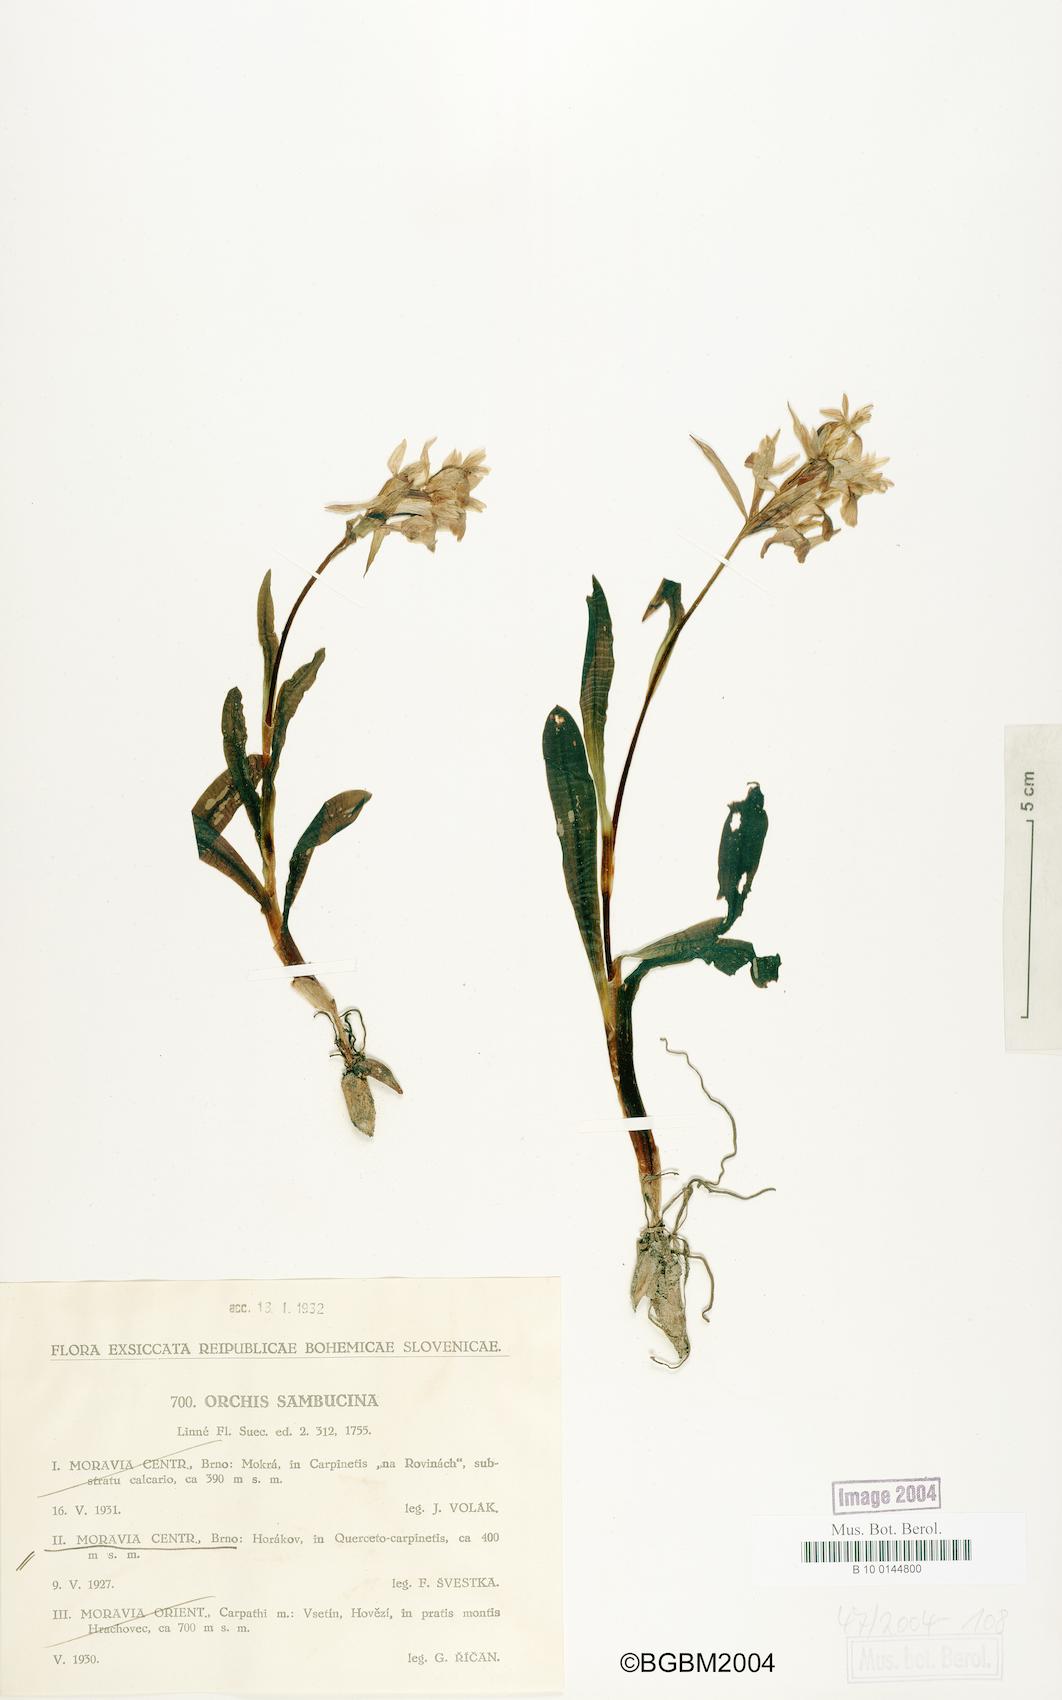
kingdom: Plantae
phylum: Tracheophyta
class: Liliopsida
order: Asparagales
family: Orchidaceae
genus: Dactylorhiza
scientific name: Dactylorhiza sambucina
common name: Elder-flowered orchid
